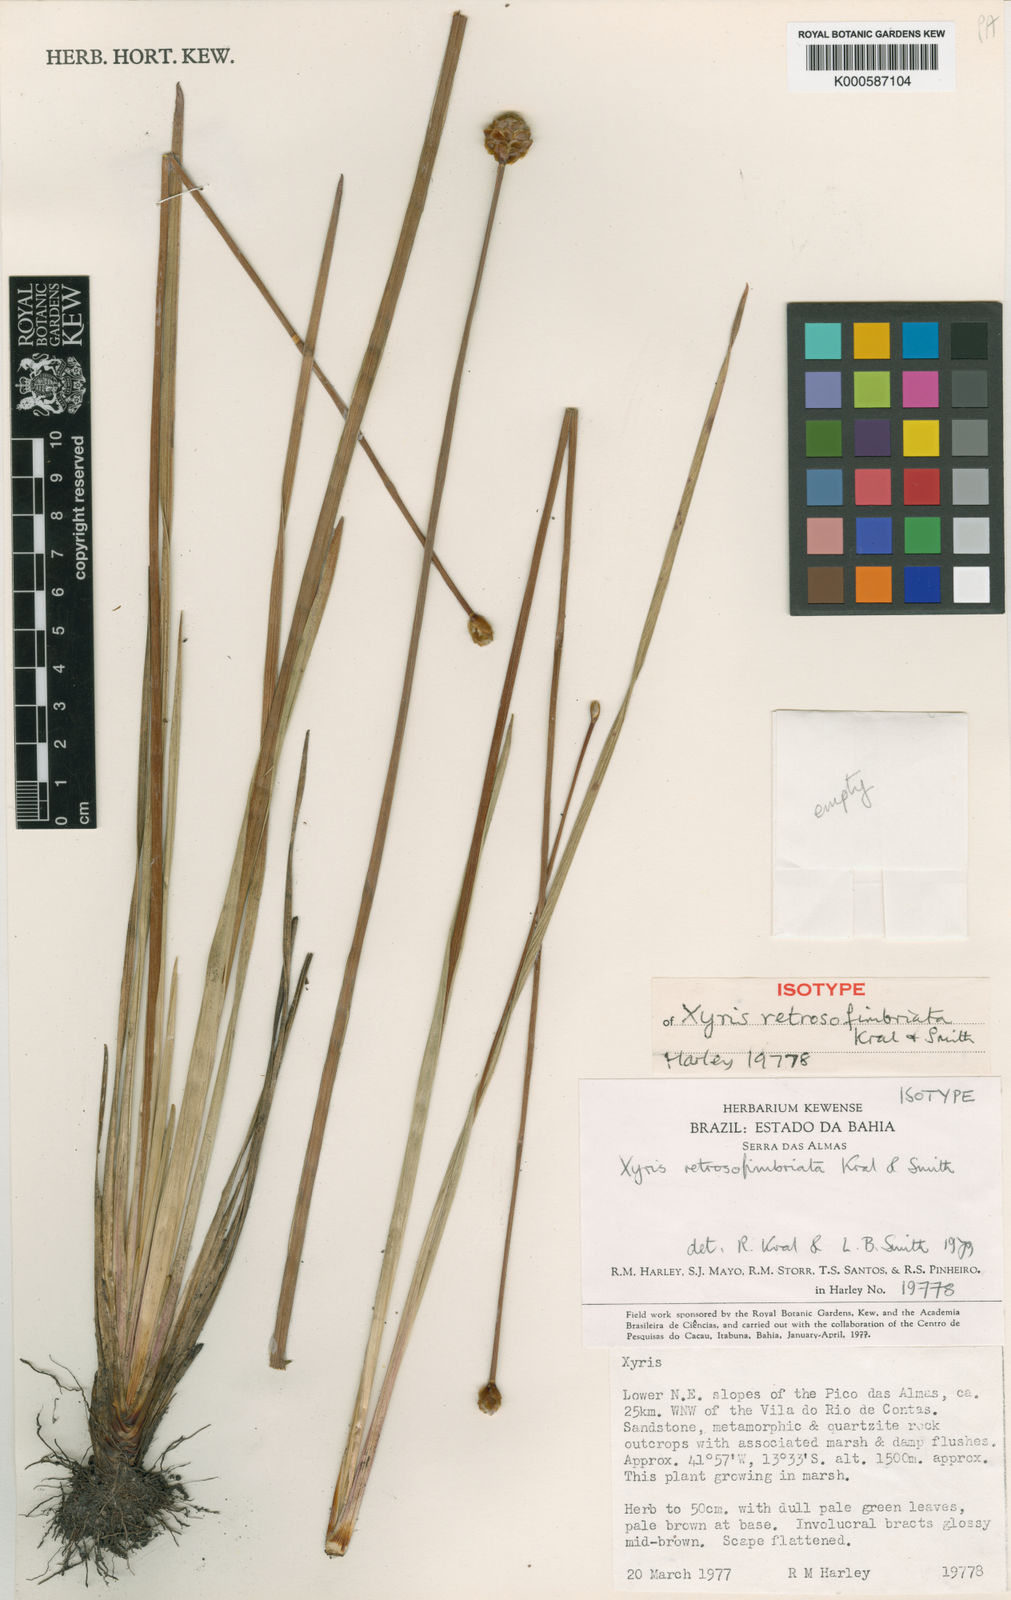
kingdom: Plantae
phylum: Tracheophyta
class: Liliopsida
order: Poales
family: Xyridaceae
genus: Xyris
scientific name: Xyris
